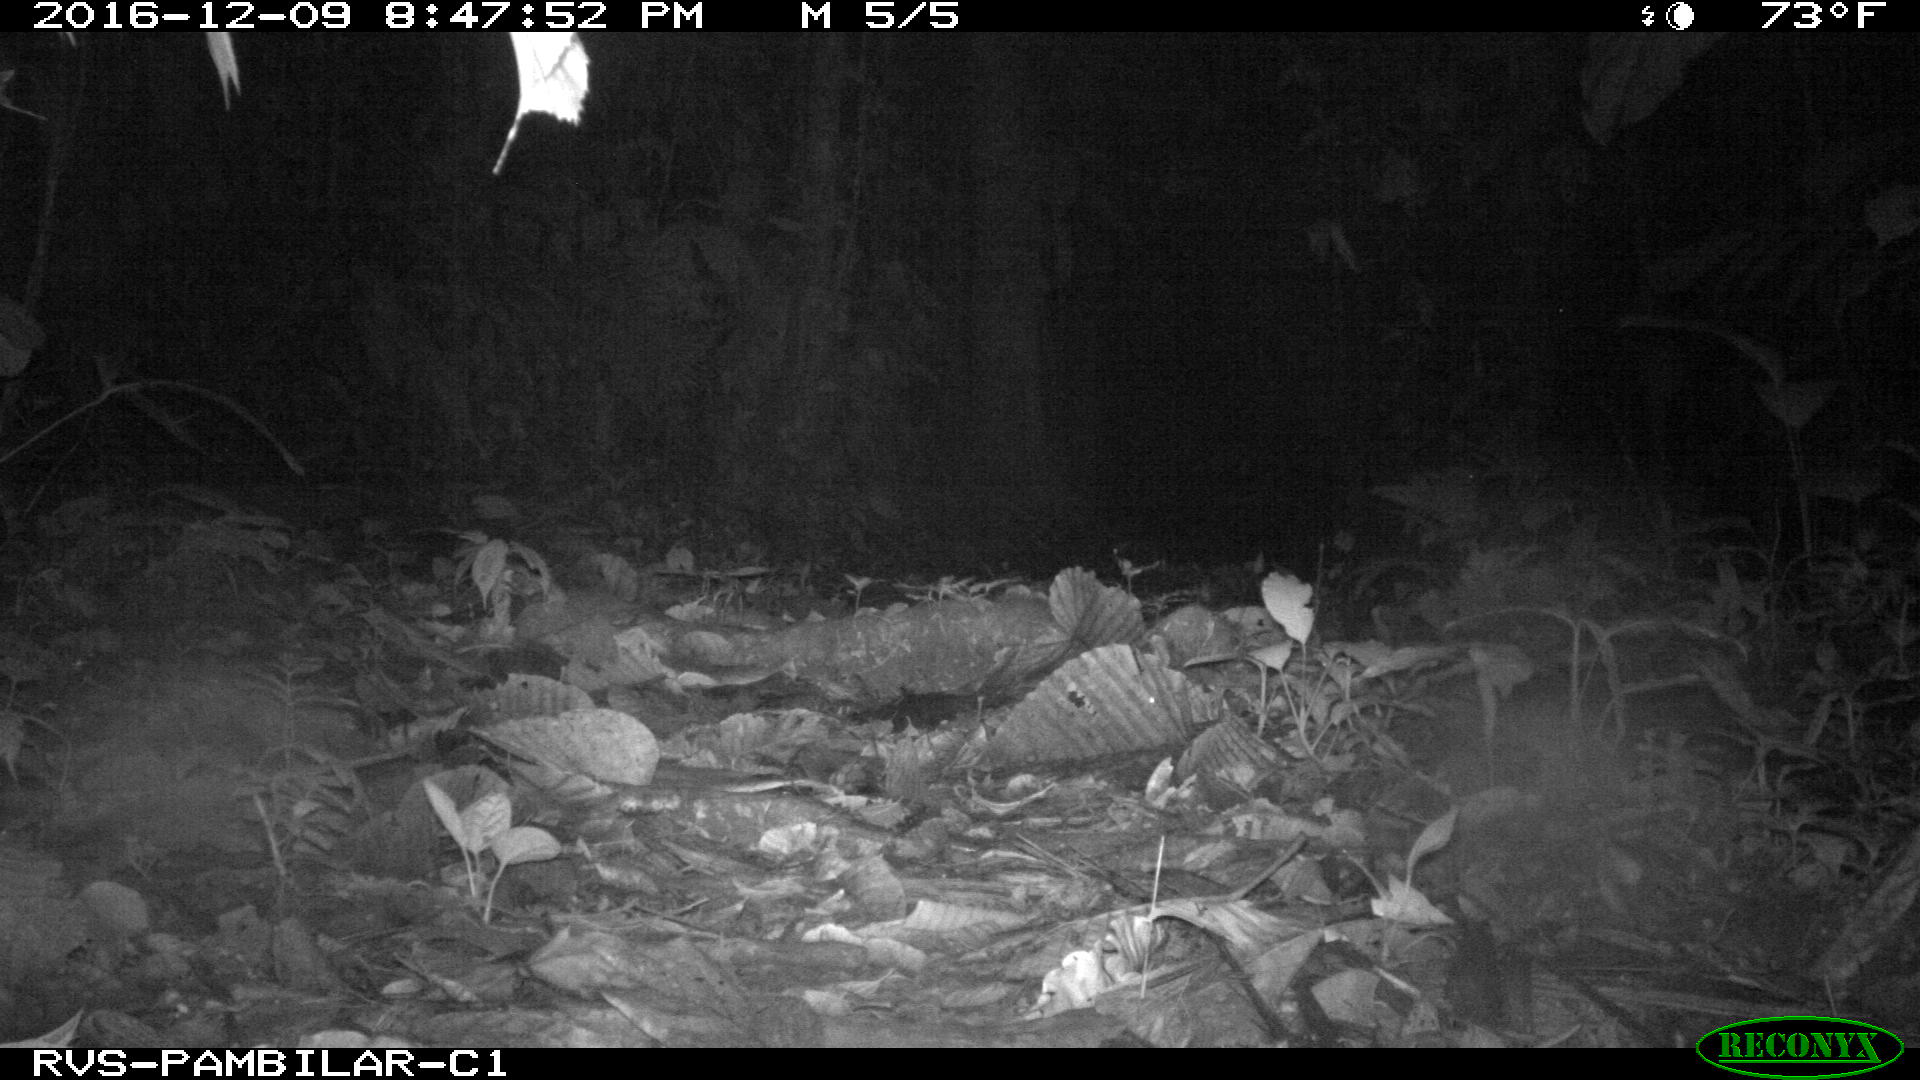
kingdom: Animalia
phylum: Chordata
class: Mammalia
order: Carnivora
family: Felidae
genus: Puma
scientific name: Puma concolor
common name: Puma
